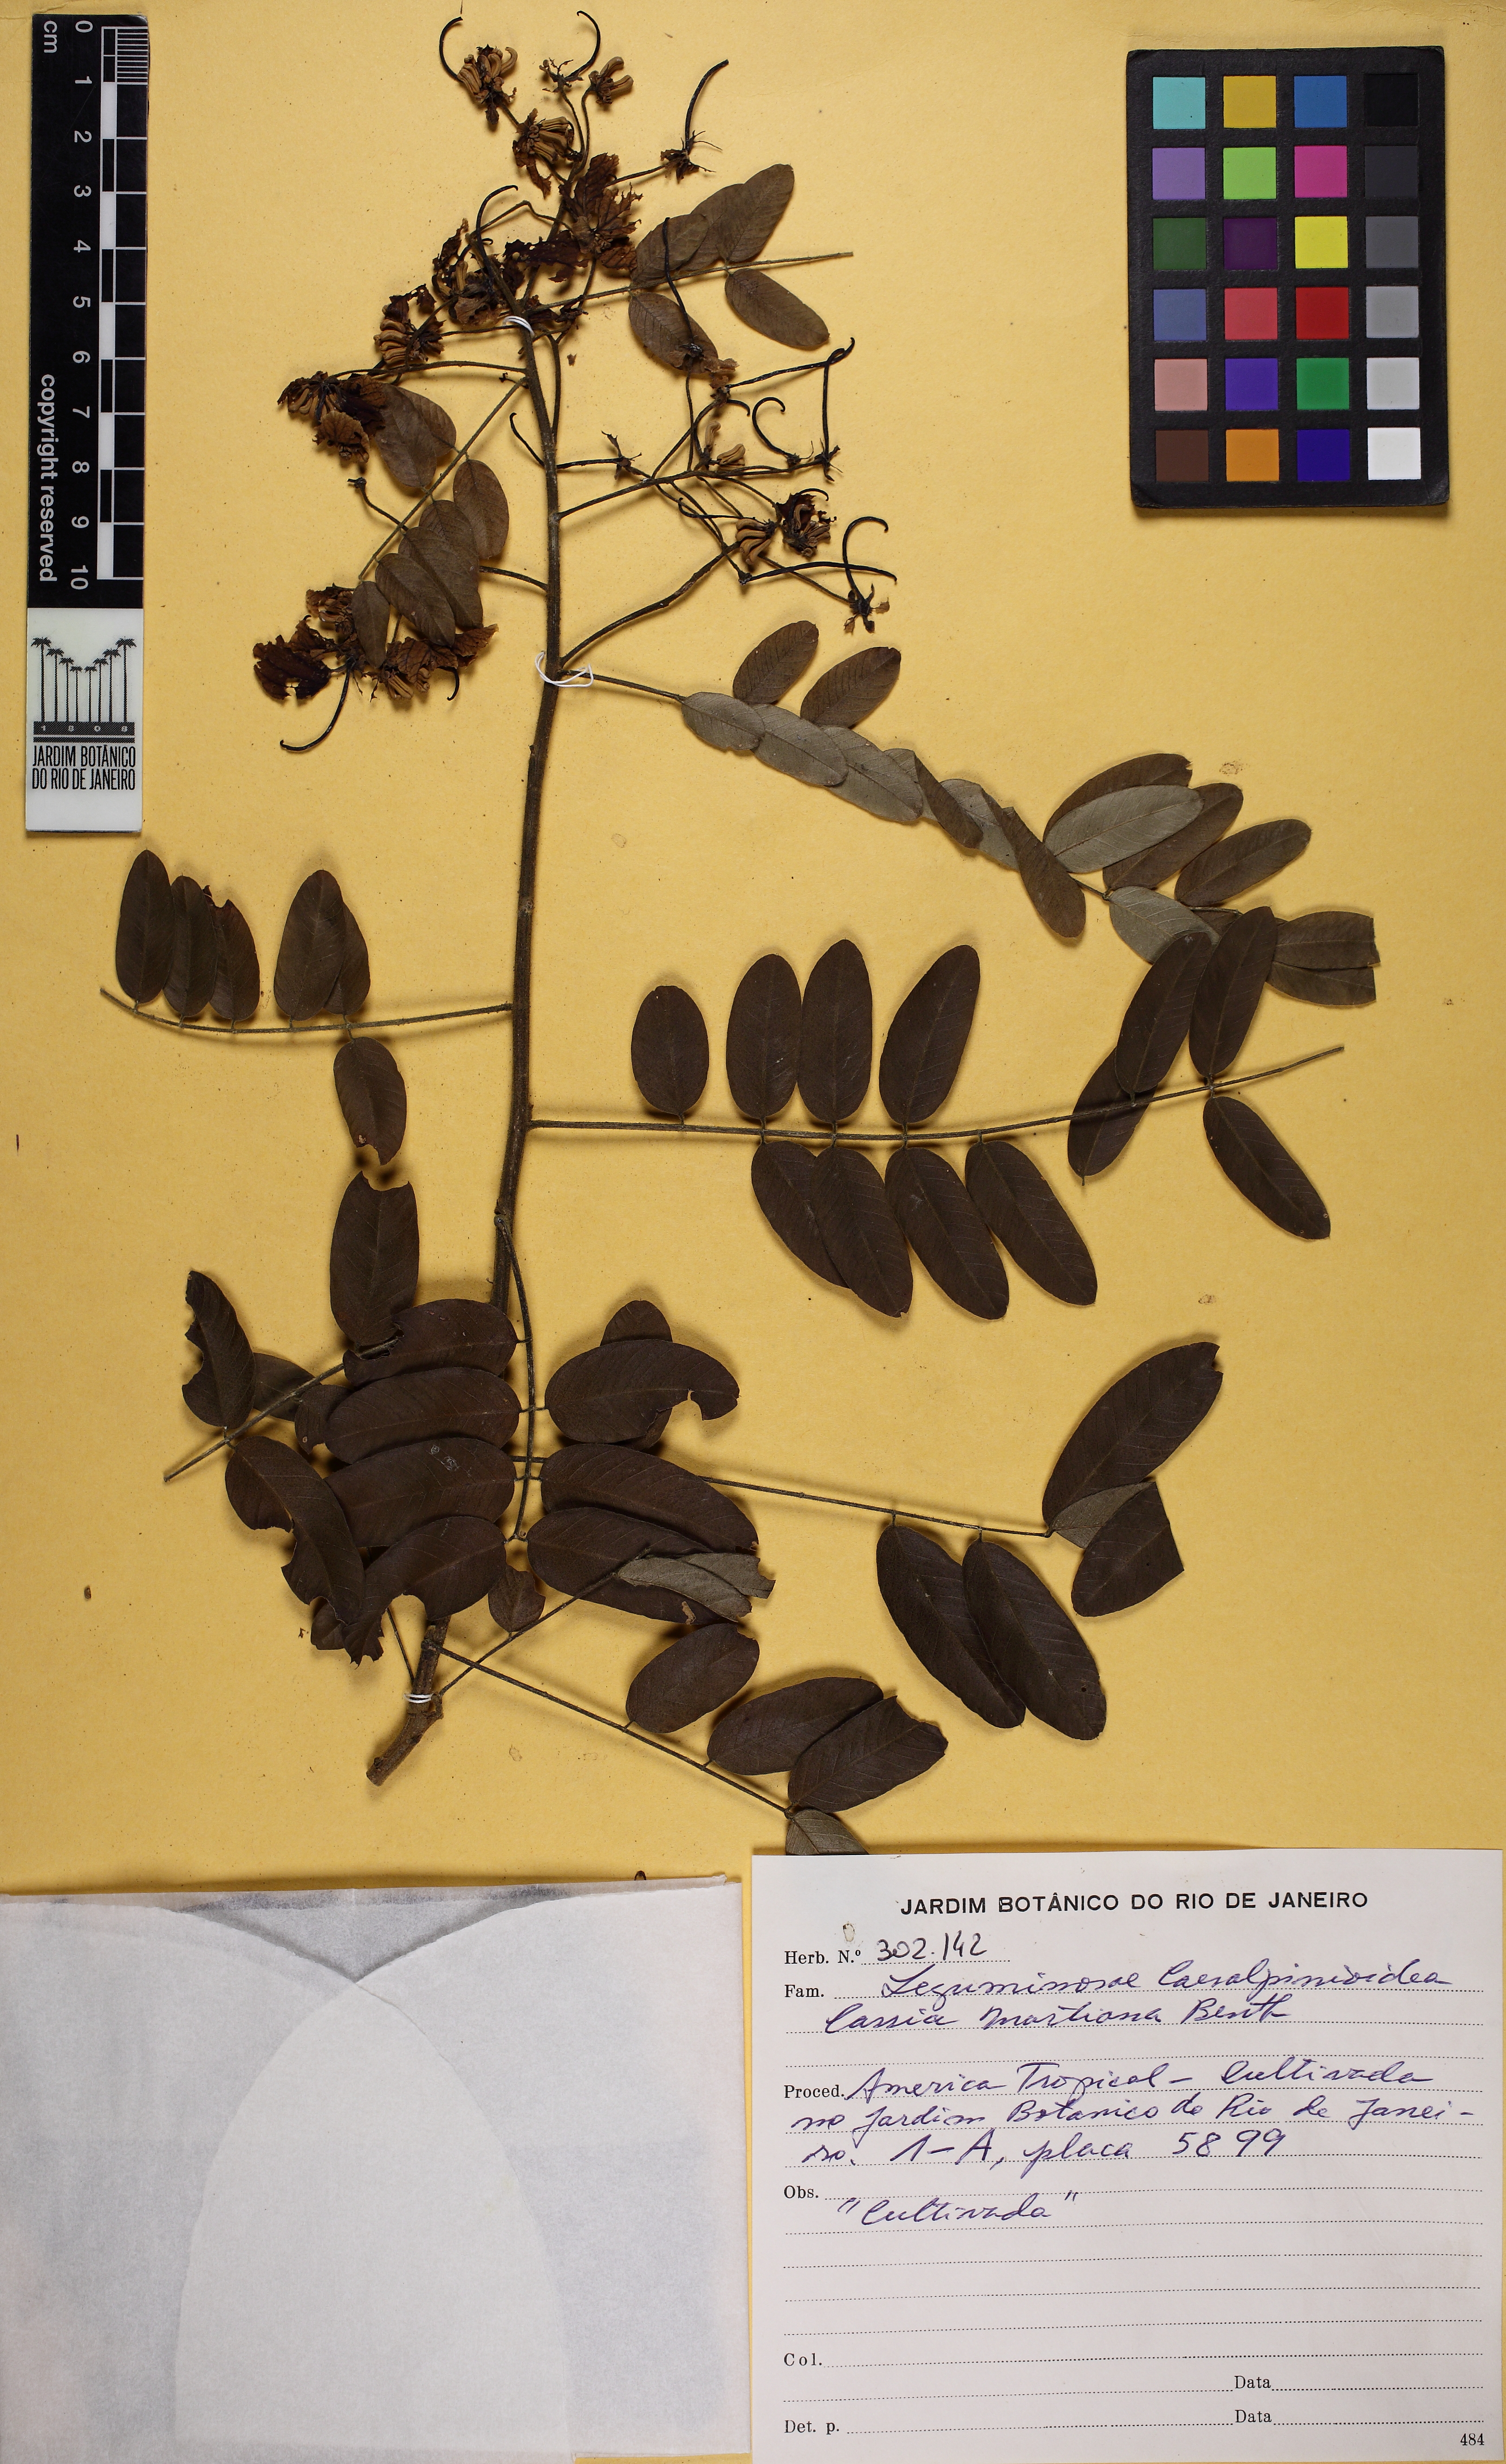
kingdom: Plantae
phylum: Tracheophyta
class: Magnoliopsida
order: Fabales
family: Fabaceae
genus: Senna
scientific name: Senna martiana
